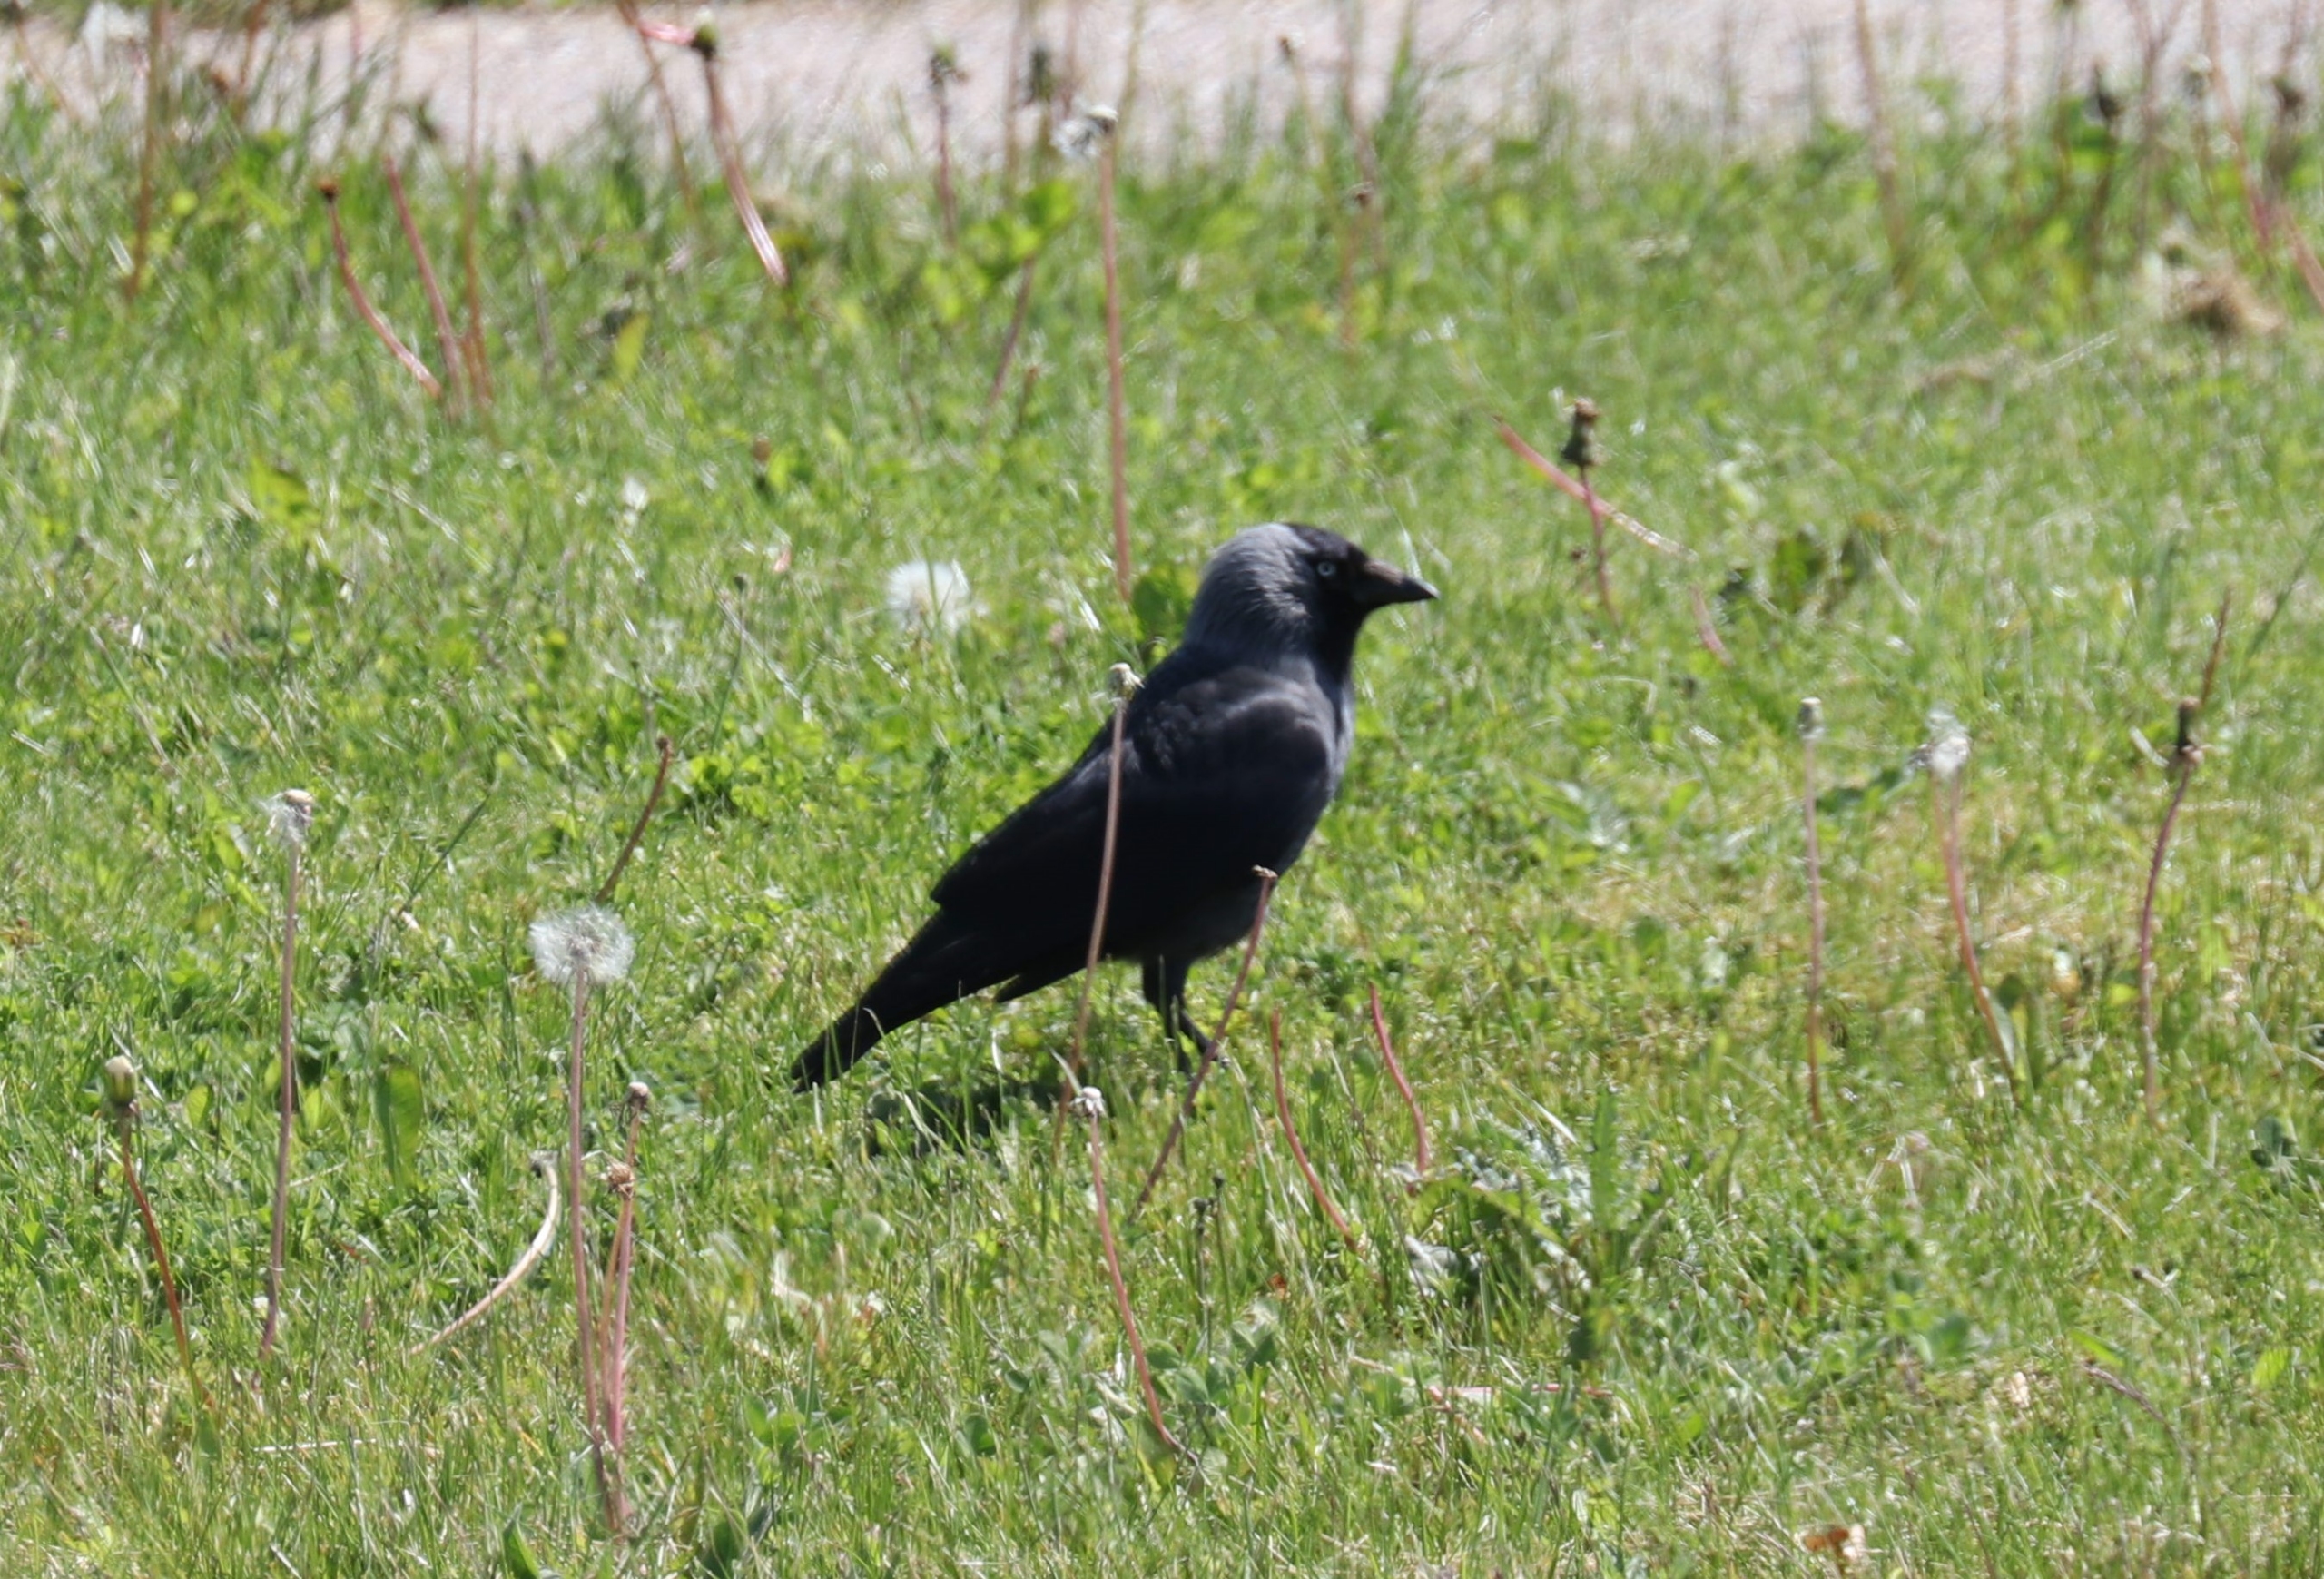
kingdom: Animalia
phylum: Chordata
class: Aves
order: Passeriformes
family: Corvidae
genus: Coloeus
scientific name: Coloeus monedula
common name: Allike
